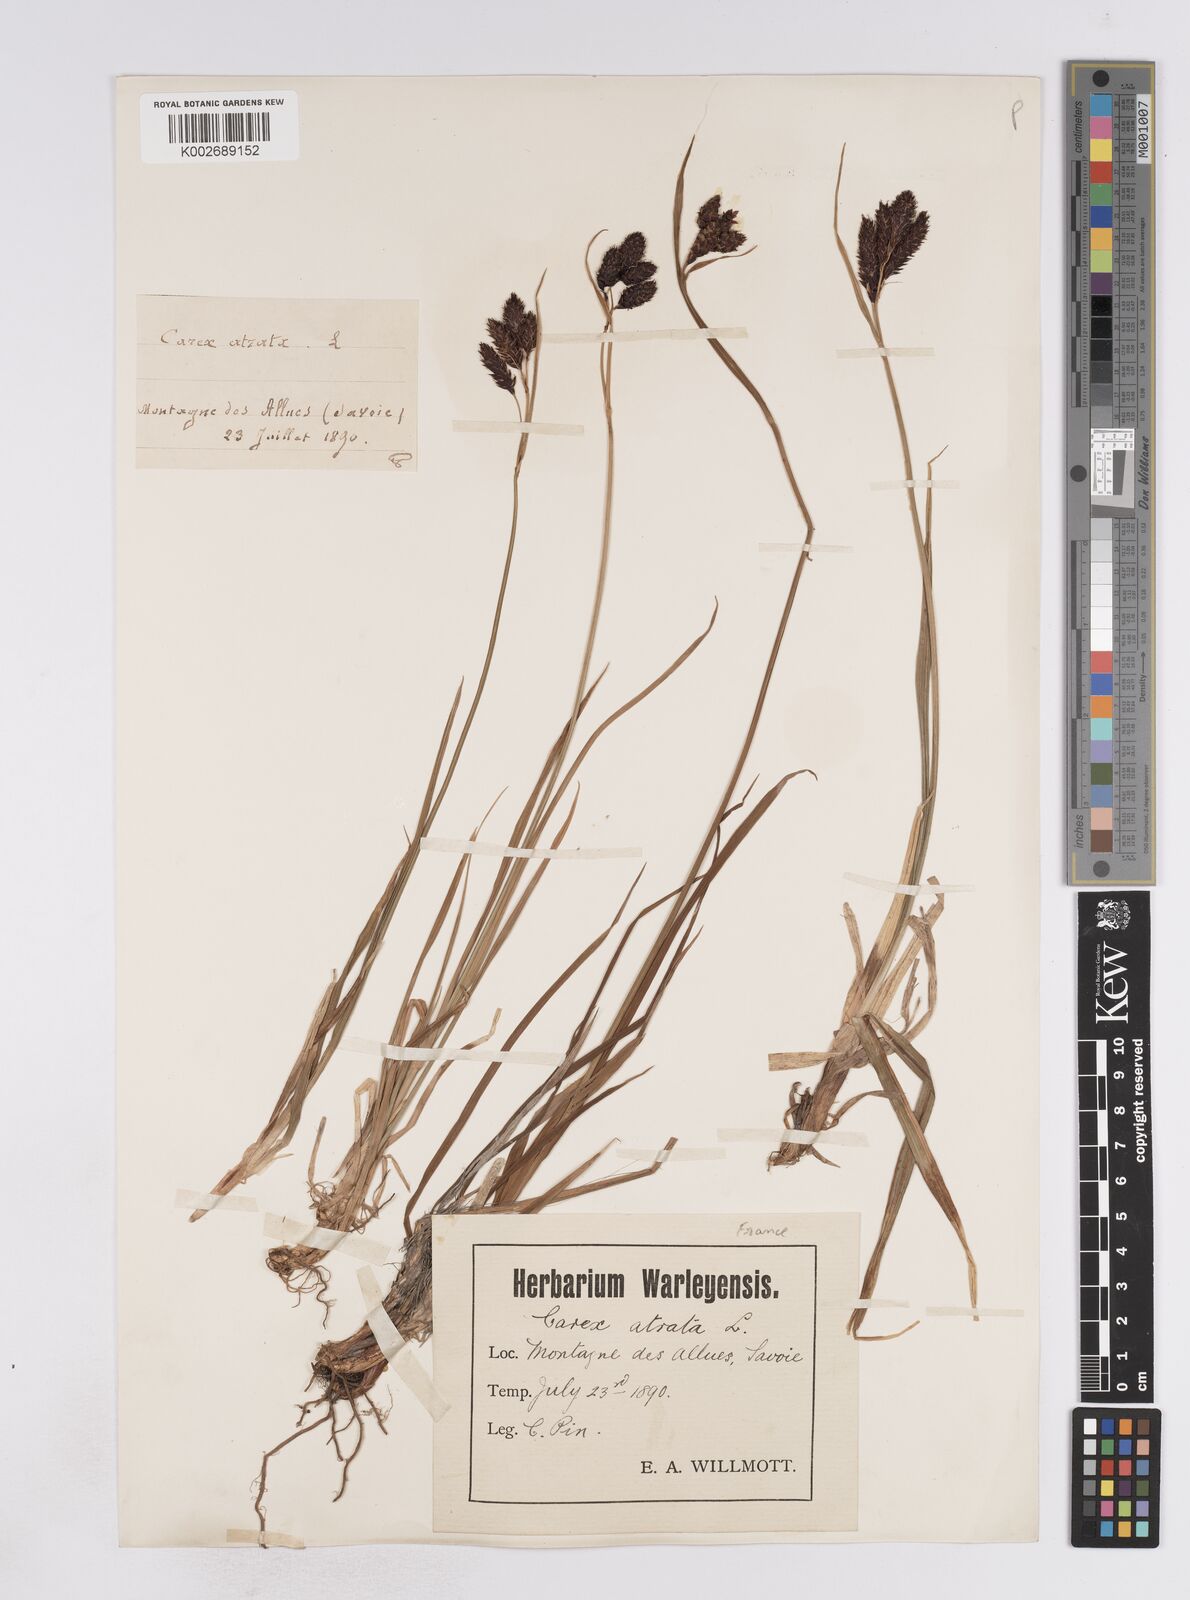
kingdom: Plantae
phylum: Tracheophyta
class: Liliopsida
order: Poales
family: Cyperaceae
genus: Carex
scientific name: Carex aterrima
